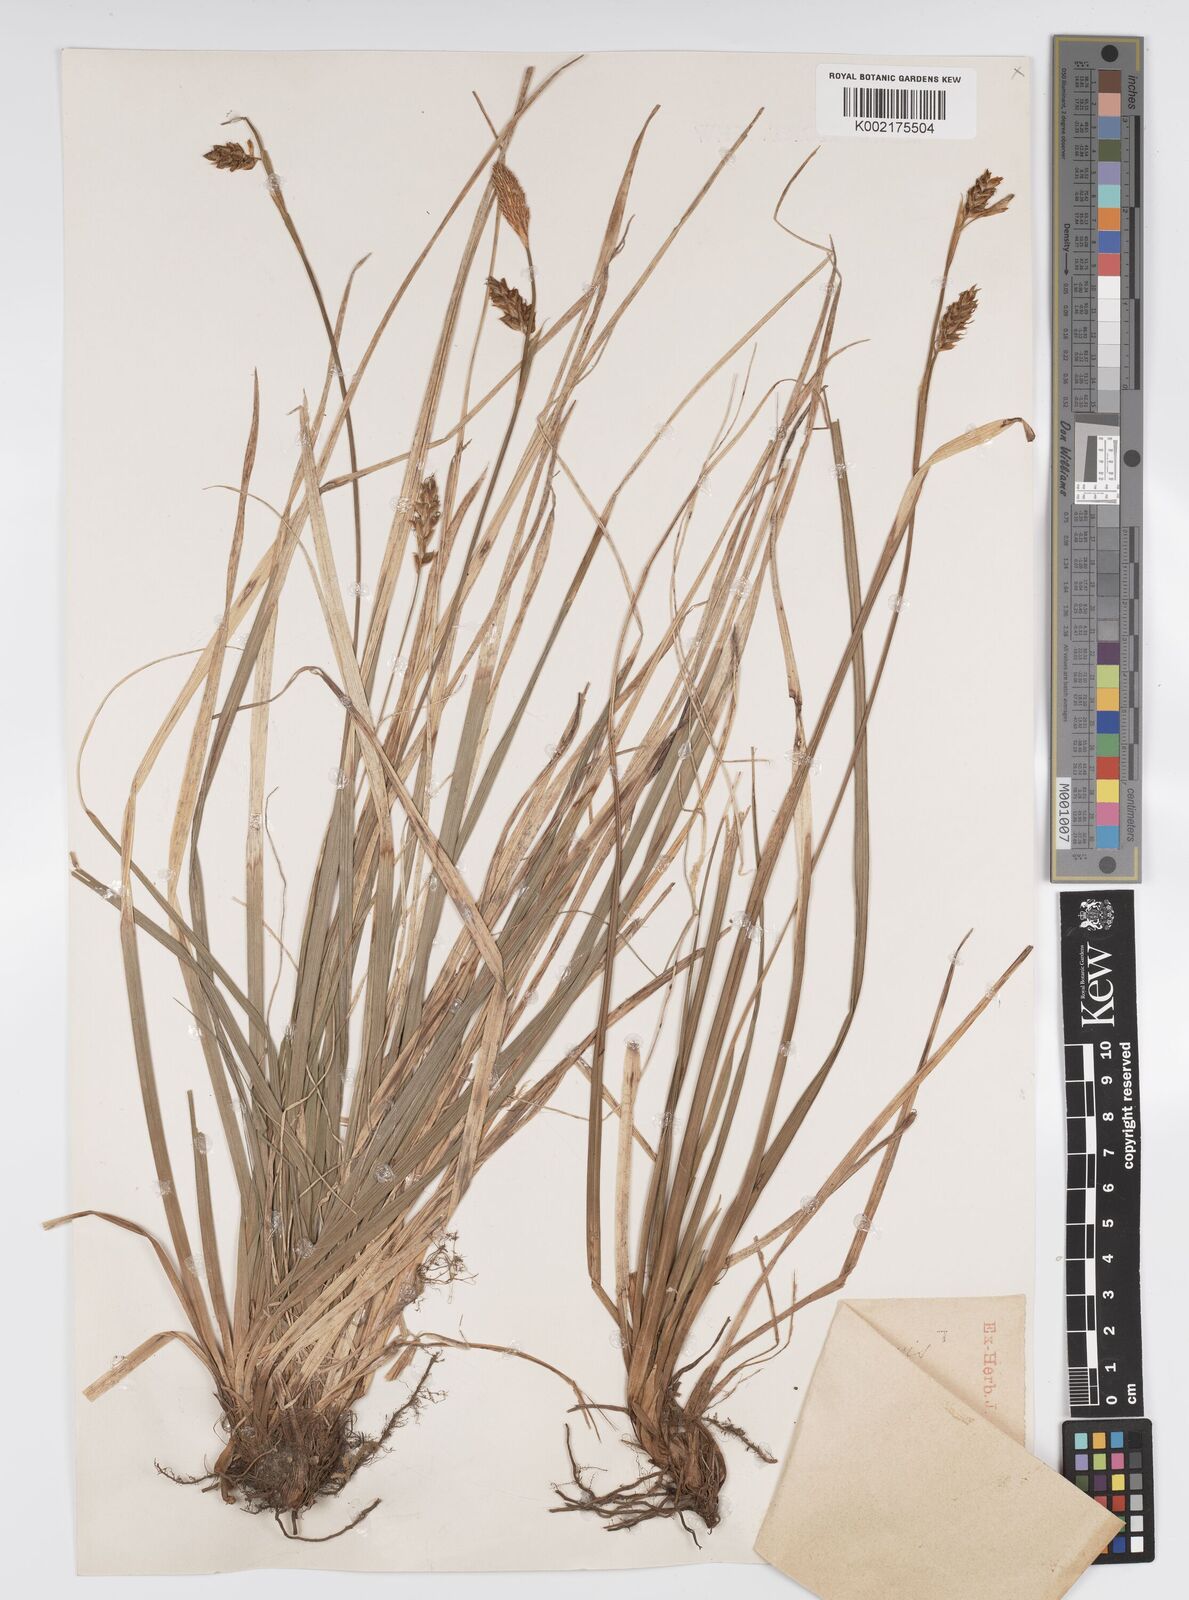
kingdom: Plantae
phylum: Tracheophyta
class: Liliopsida
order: Poales
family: Cyperaceae
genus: Carex
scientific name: Carex brevicollis
